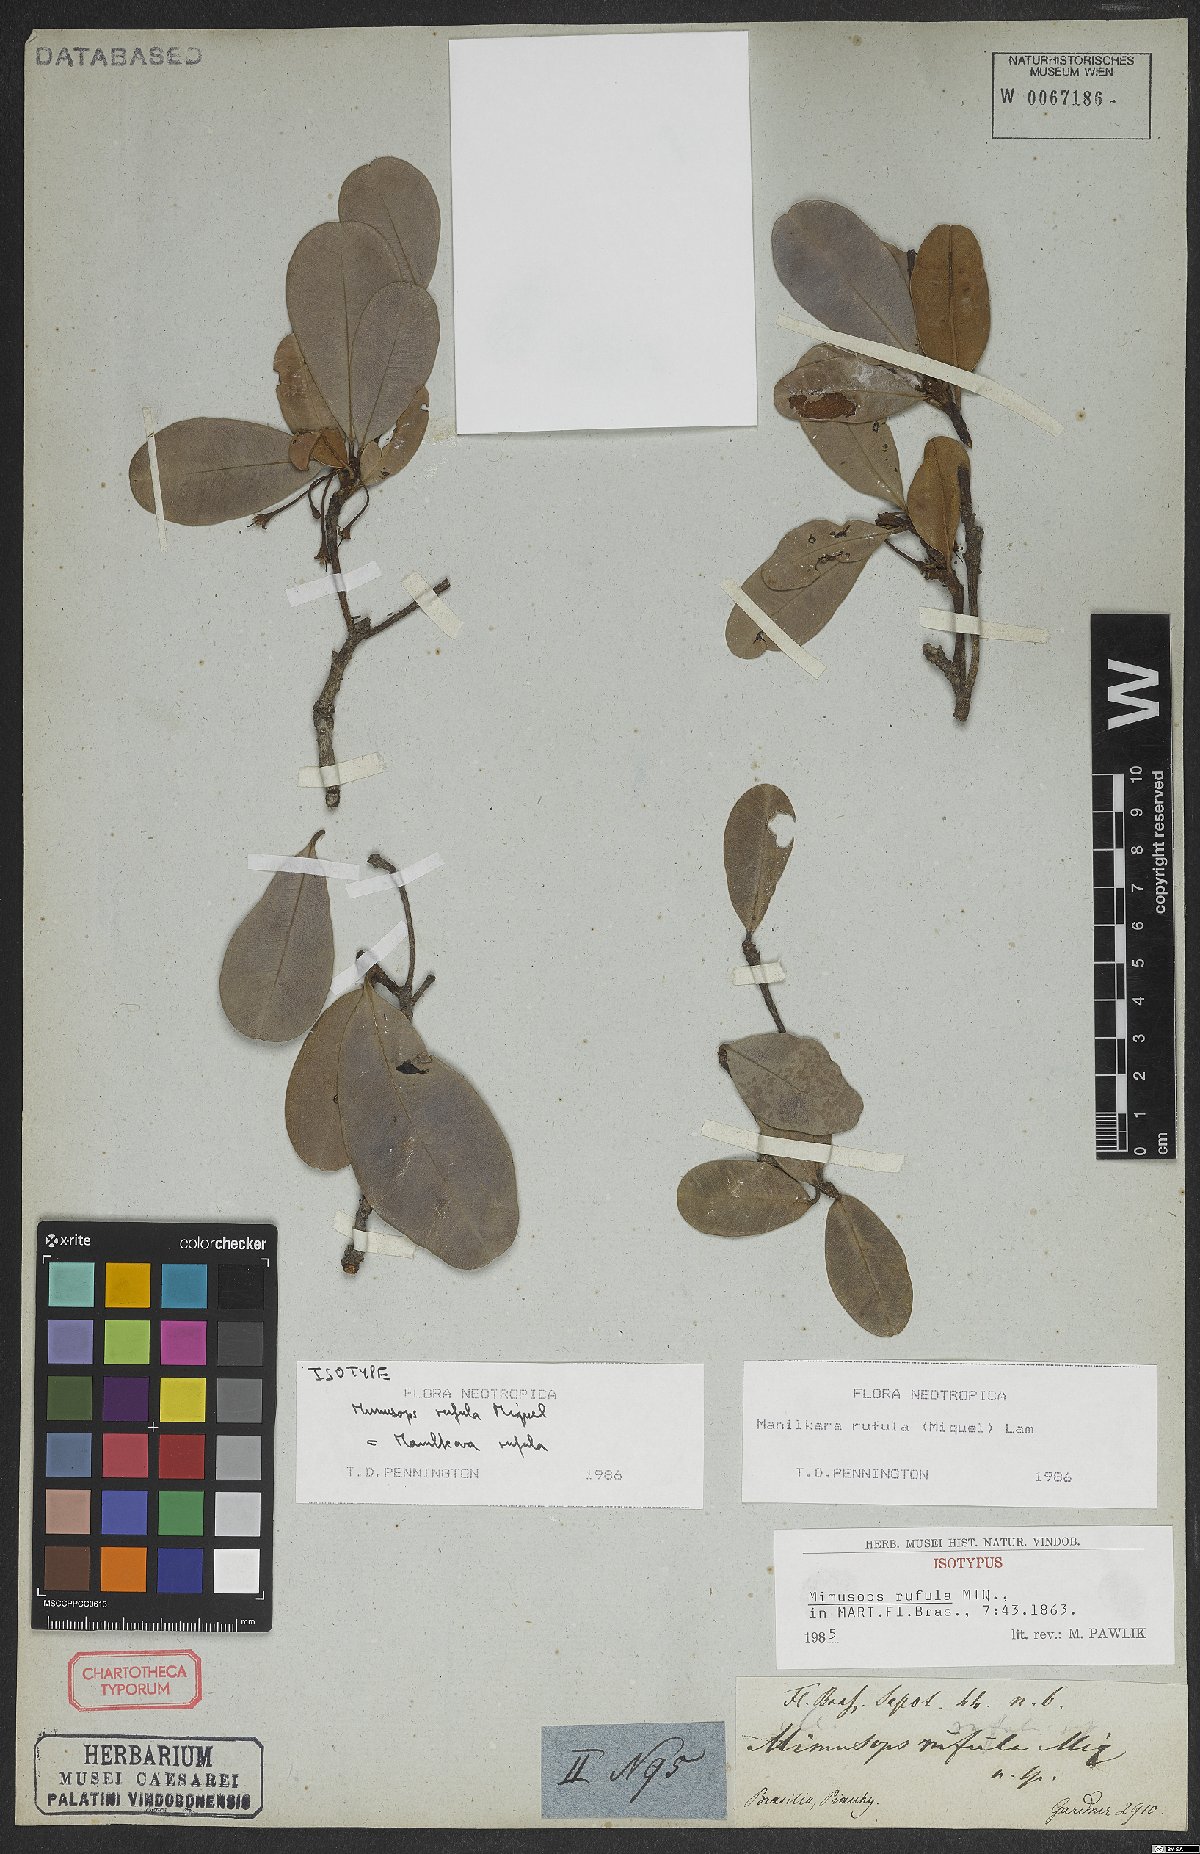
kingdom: Plantae
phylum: Tracheophyta
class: Magnoliopsida
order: Ericales
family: Sapotaceae
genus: Manilkara
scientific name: Manilkara rufula
